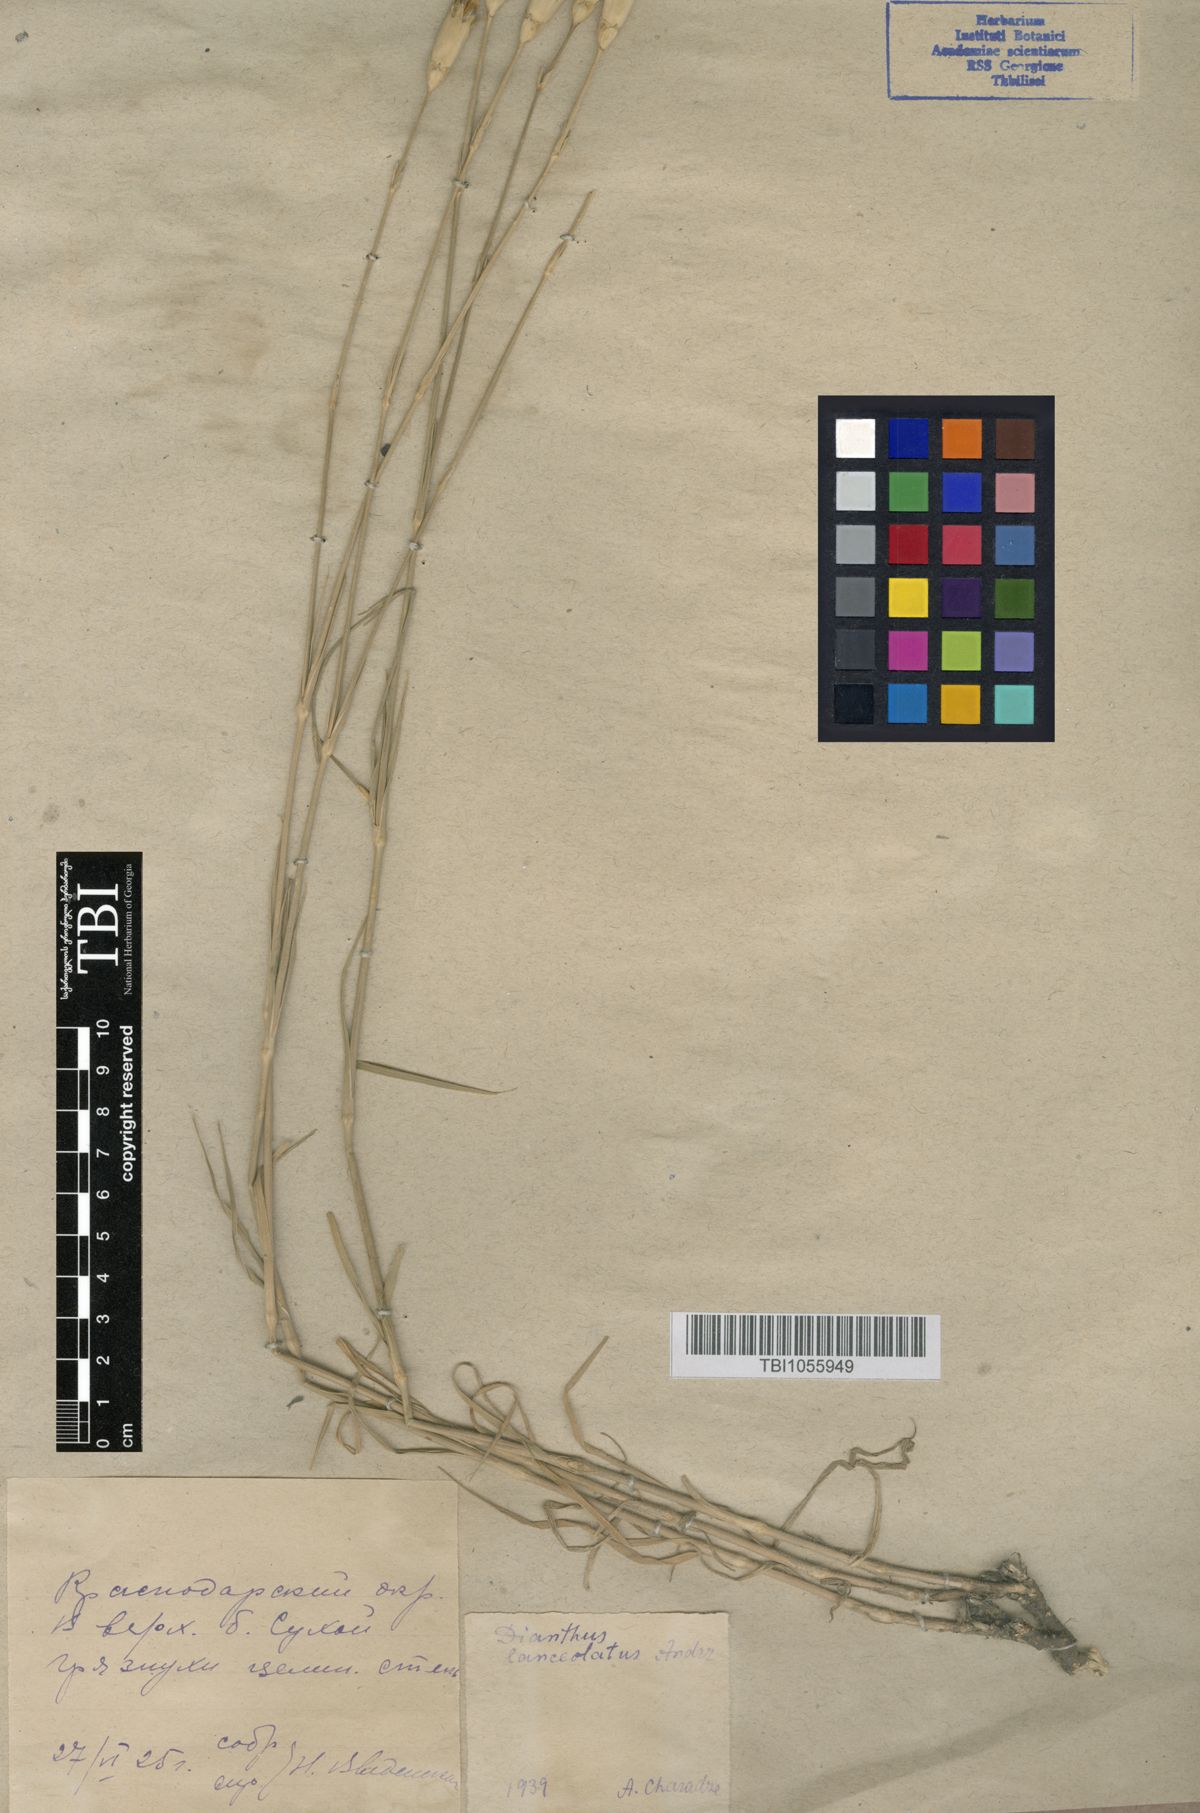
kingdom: Plantae
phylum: Tracheophyta
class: Magnoliopsida
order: Caryophyllales
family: Caryophyllaceae
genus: Dianthus
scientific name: Dianthus leptopetalus
